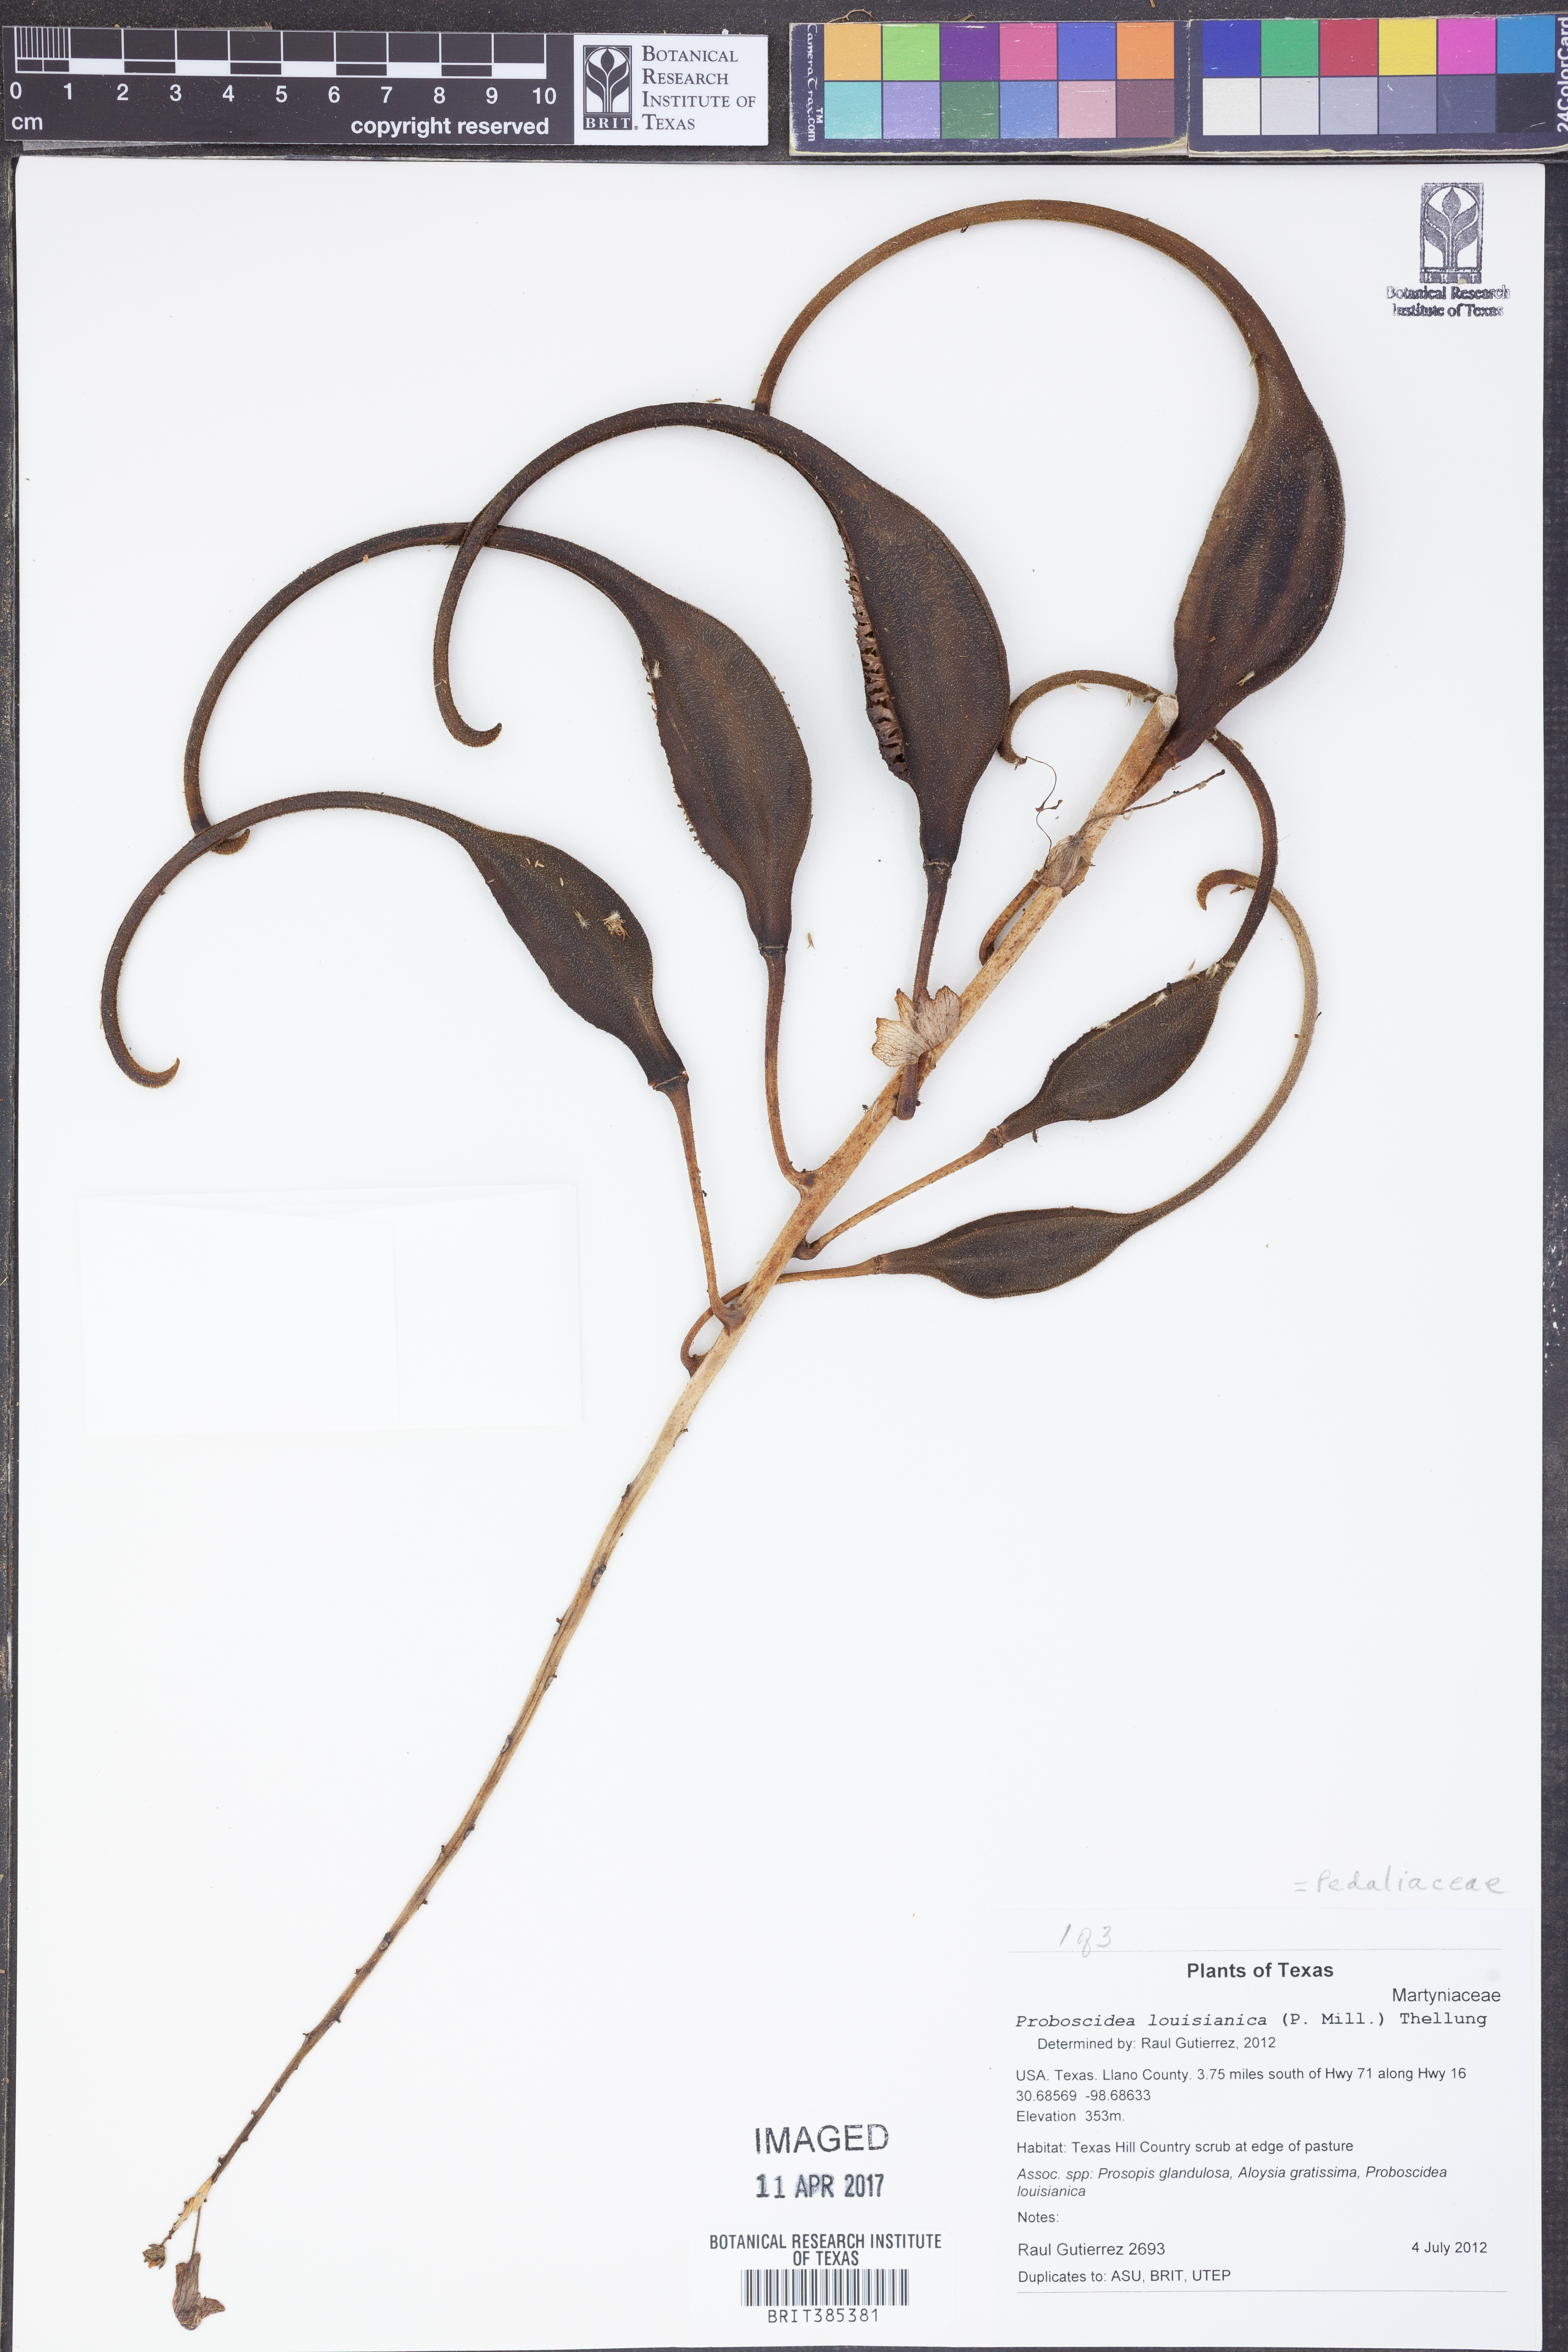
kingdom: Plantae
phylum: Tracheophyta
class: Magnoliopsida
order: Lamiales
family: Martyniaceae
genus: Proboscidea
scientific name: Proboscidea louisianica
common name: Elephant tusks
